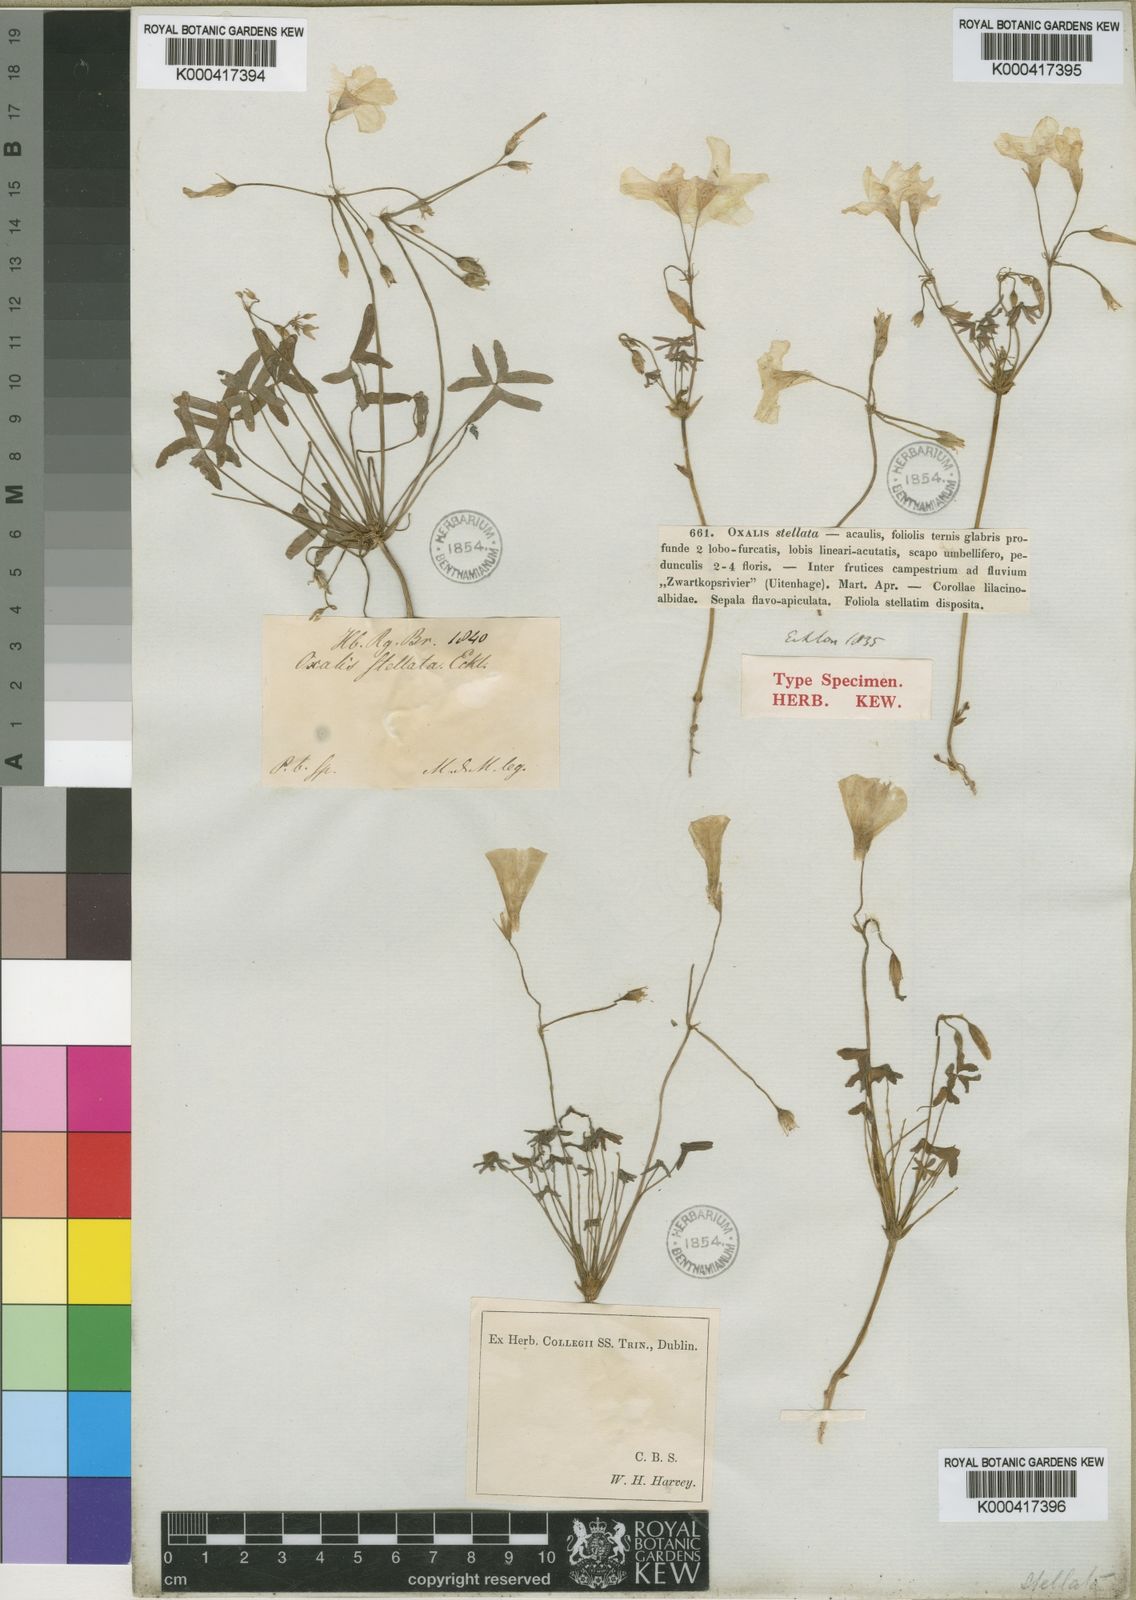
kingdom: Plantae
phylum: Tracheophyta
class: Magnoliopsida
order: Oxalidales
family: Oxalidaceae
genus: Oxalis
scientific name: Oxalis stellata
